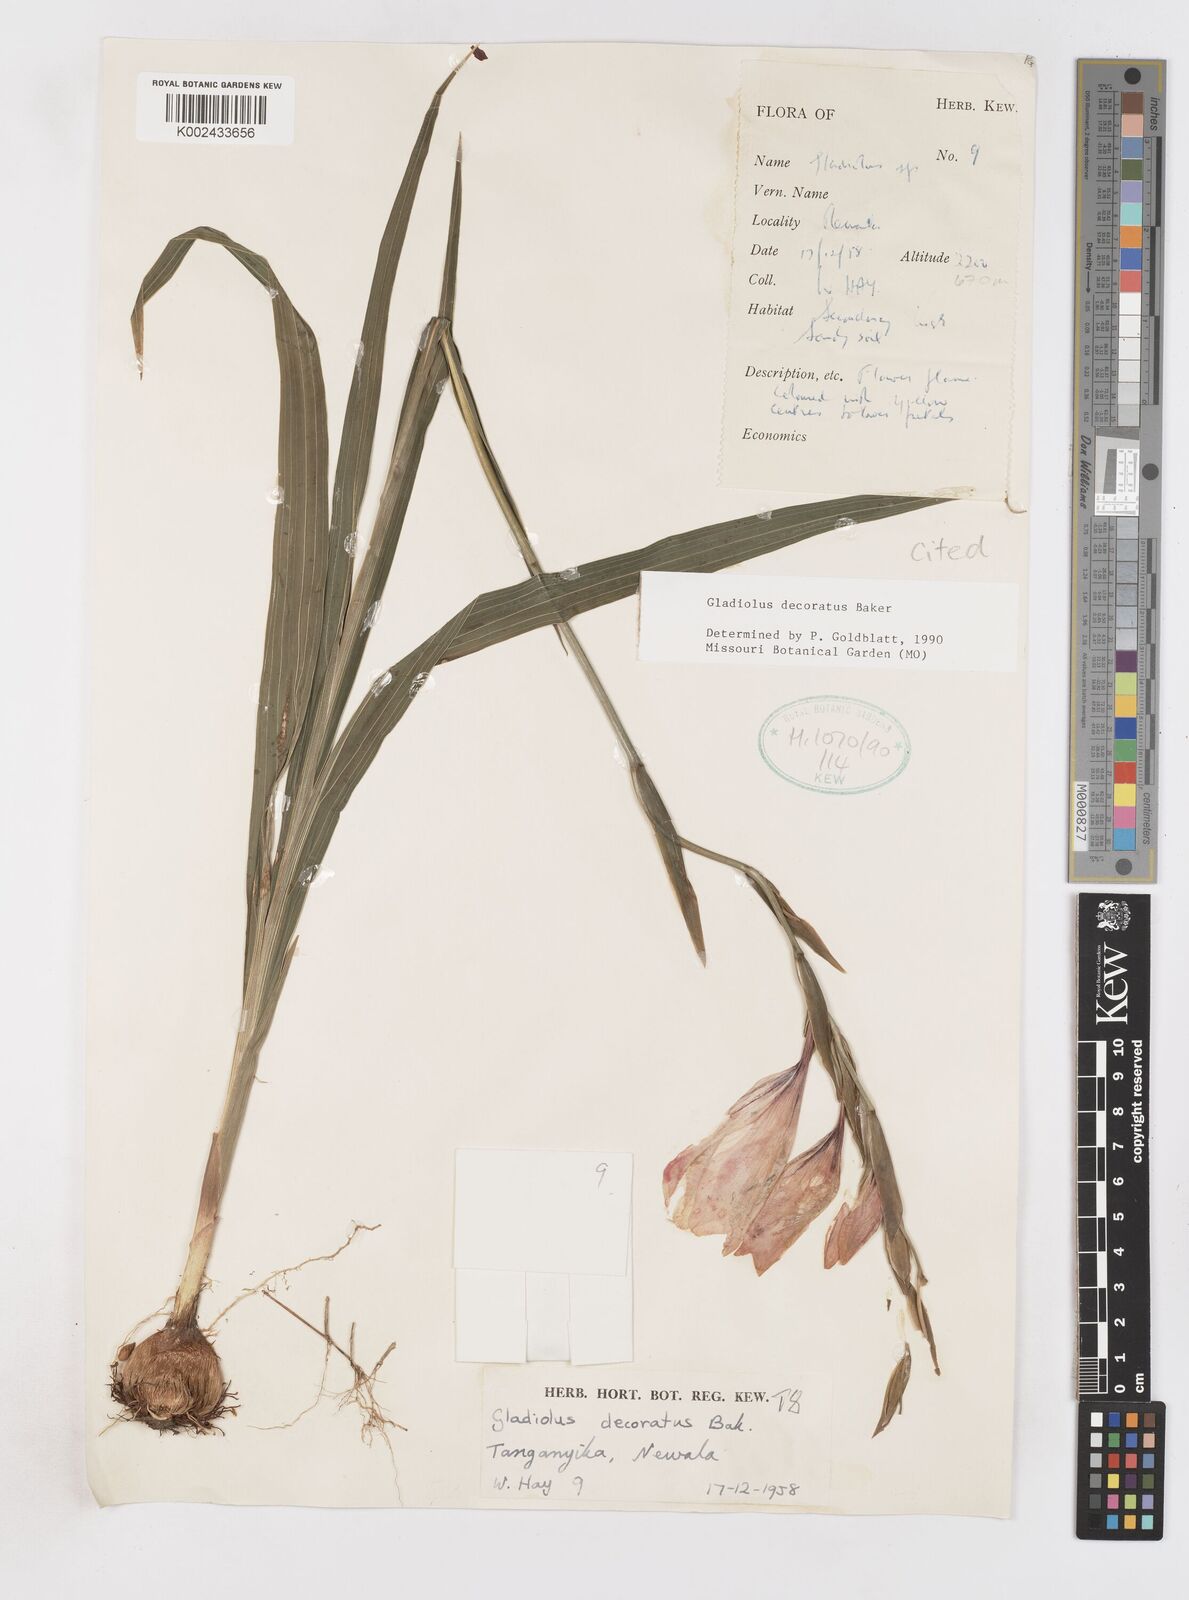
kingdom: Plantae
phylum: Tracheophyta
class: Liliopsida
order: Asparagales
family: Iridaceae
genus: Gladiolus
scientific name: Gladiolus decoratus
